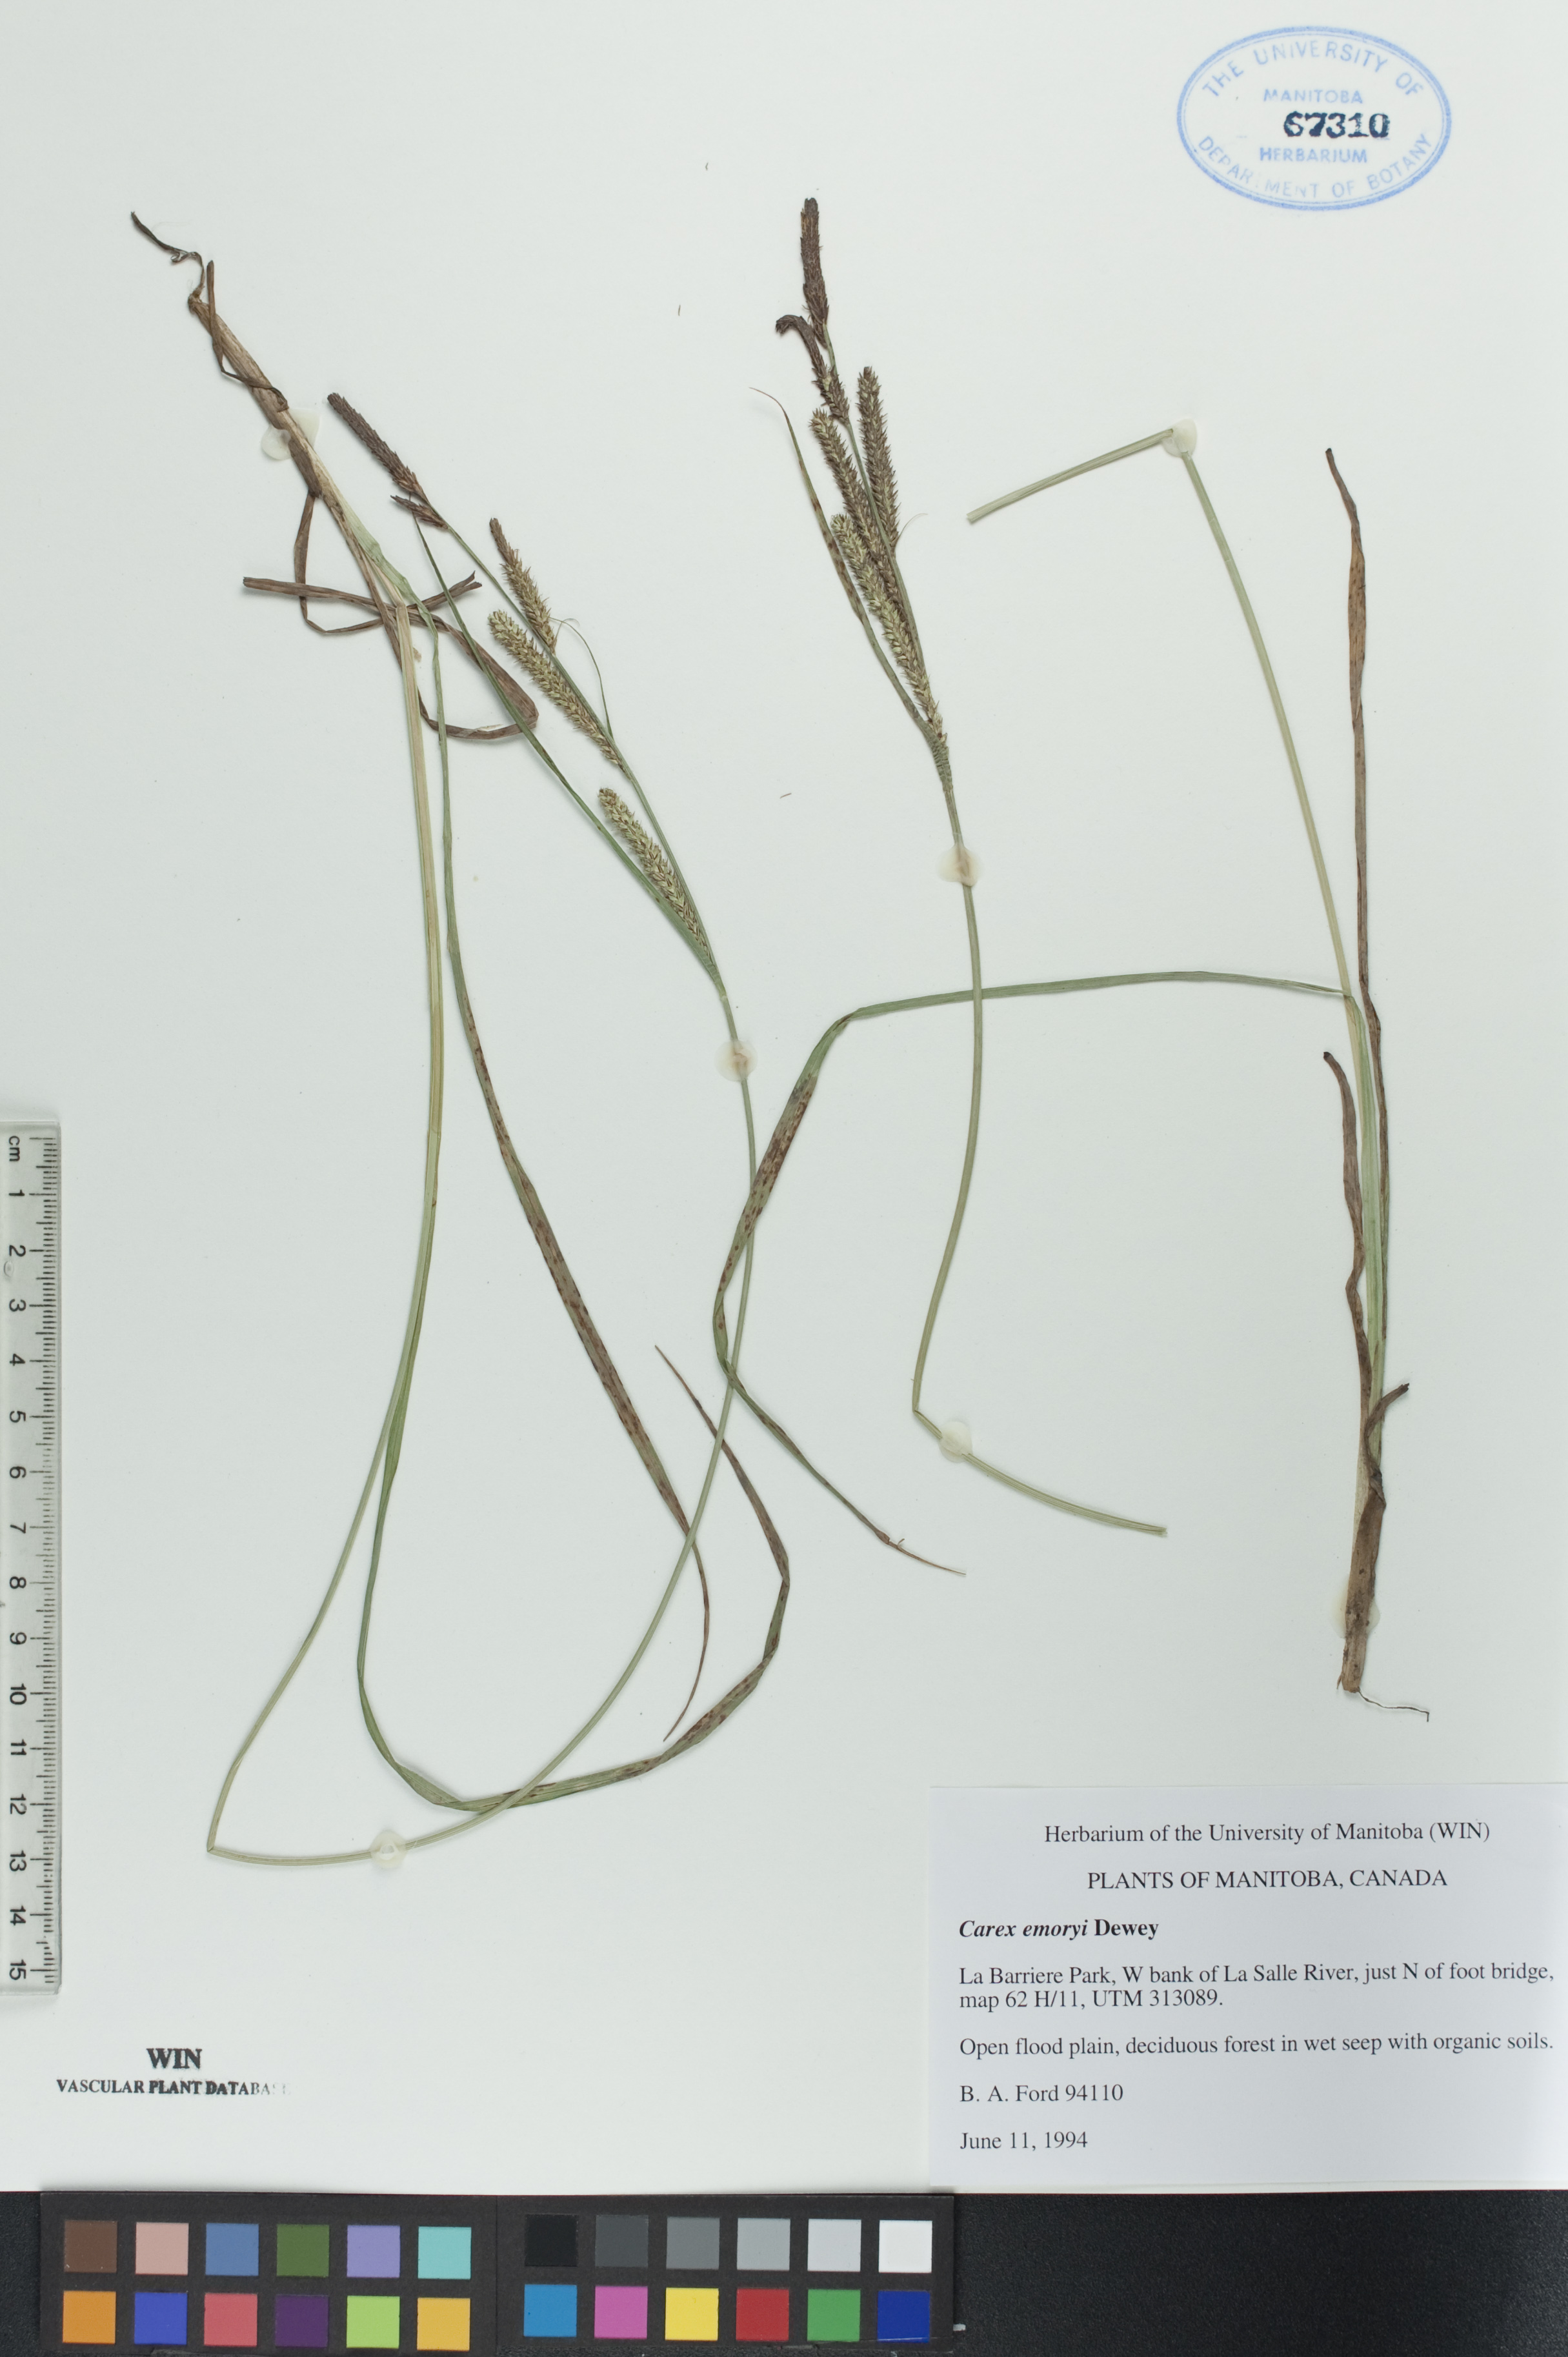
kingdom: Plantae
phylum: Tracheophyta
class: Liliopsida
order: Poales
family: Cyperaceae
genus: Carex
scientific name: Carex emoryi
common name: Emory's sedge
